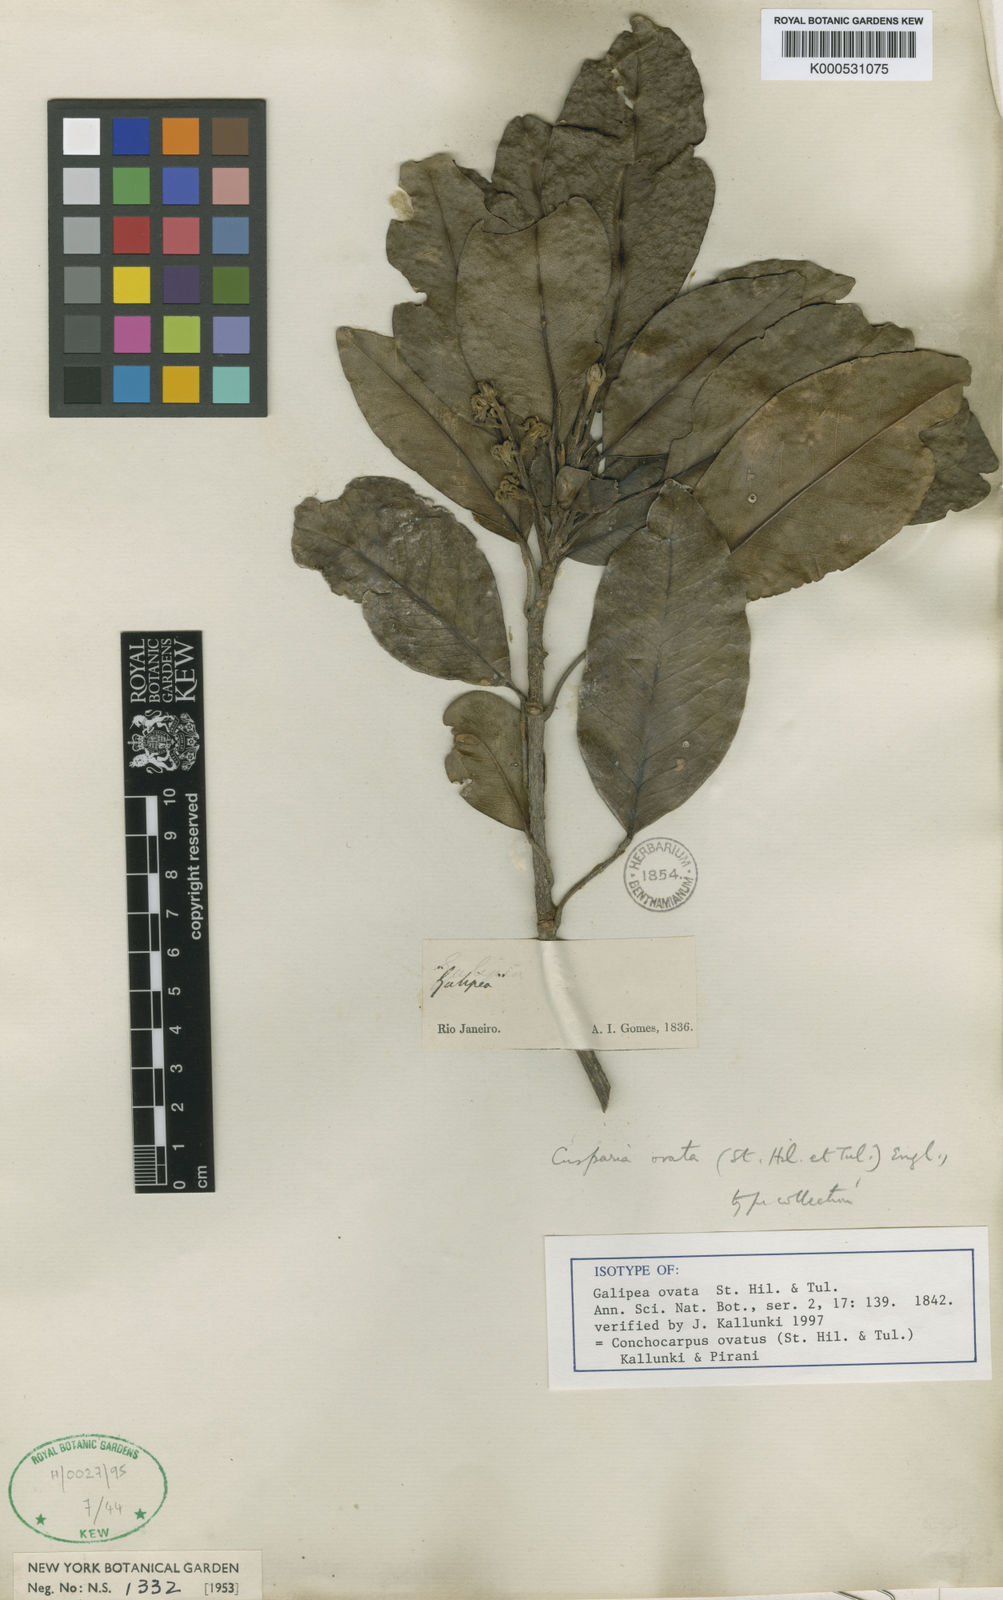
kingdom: Plantae
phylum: Tracheophyta
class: Magnoliopsida
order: Sapindales
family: Rutaceae
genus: Conchocarpus
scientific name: Conchocarpus ovatus
